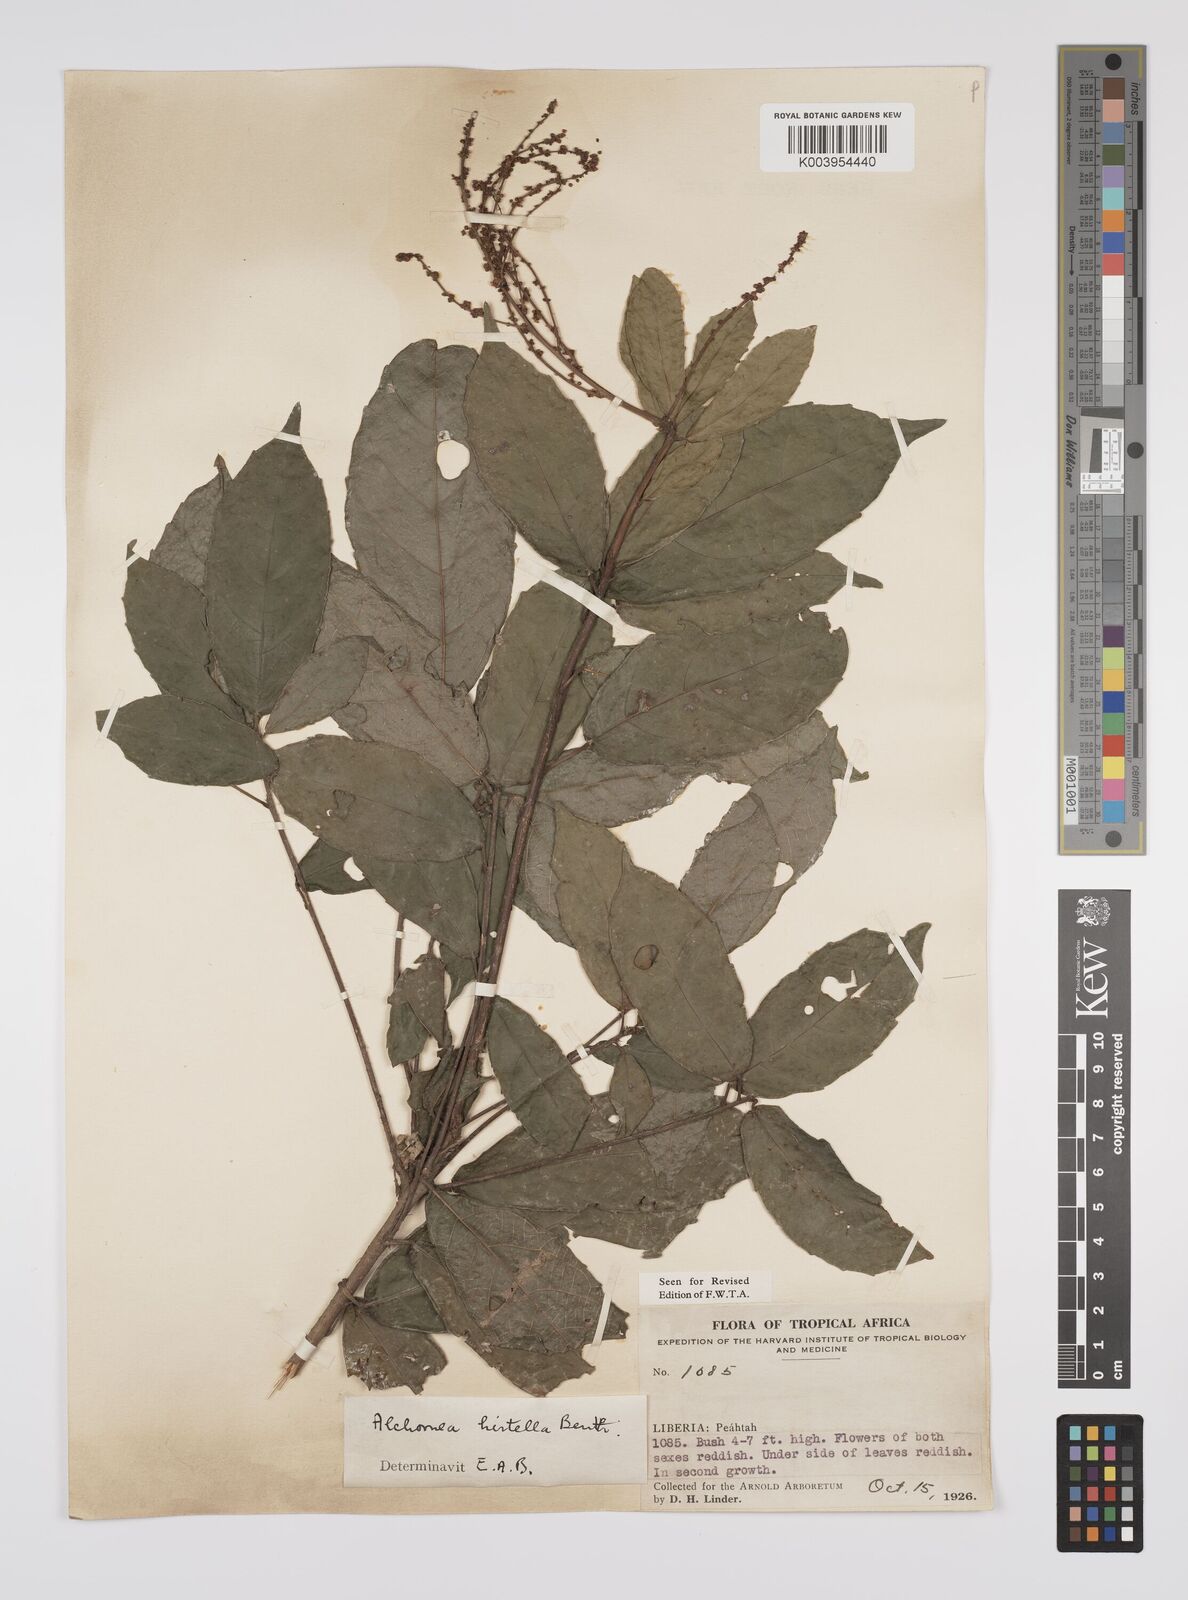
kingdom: Plantae
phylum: Tracheophyta
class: Magnoliopsida
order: Malpighiales
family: Euphorbiaceae
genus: Alchornea
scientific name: Alchornea hirtella
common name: Forest bead-string
